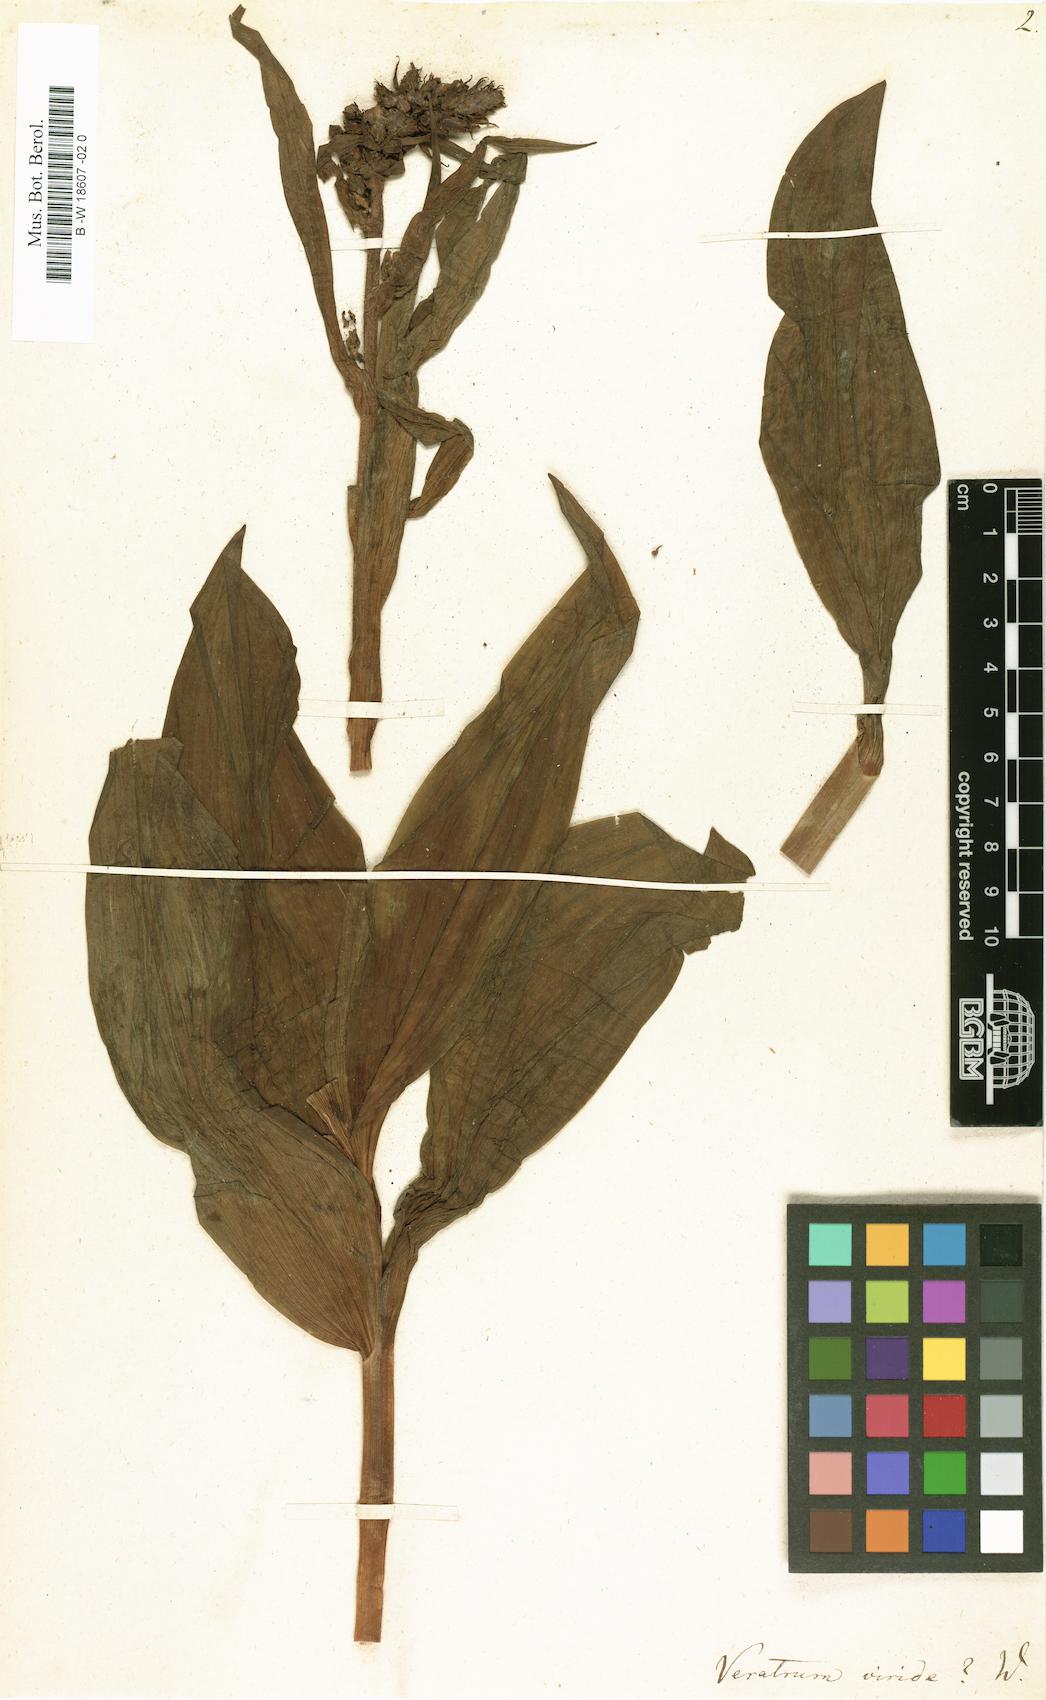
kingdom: Plantae
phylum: Tracheophyta
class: Liliopsida
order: Liliales
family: Melanthiaceae
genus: Veratrum
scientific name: Veratrum viride
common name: American false hellebore
